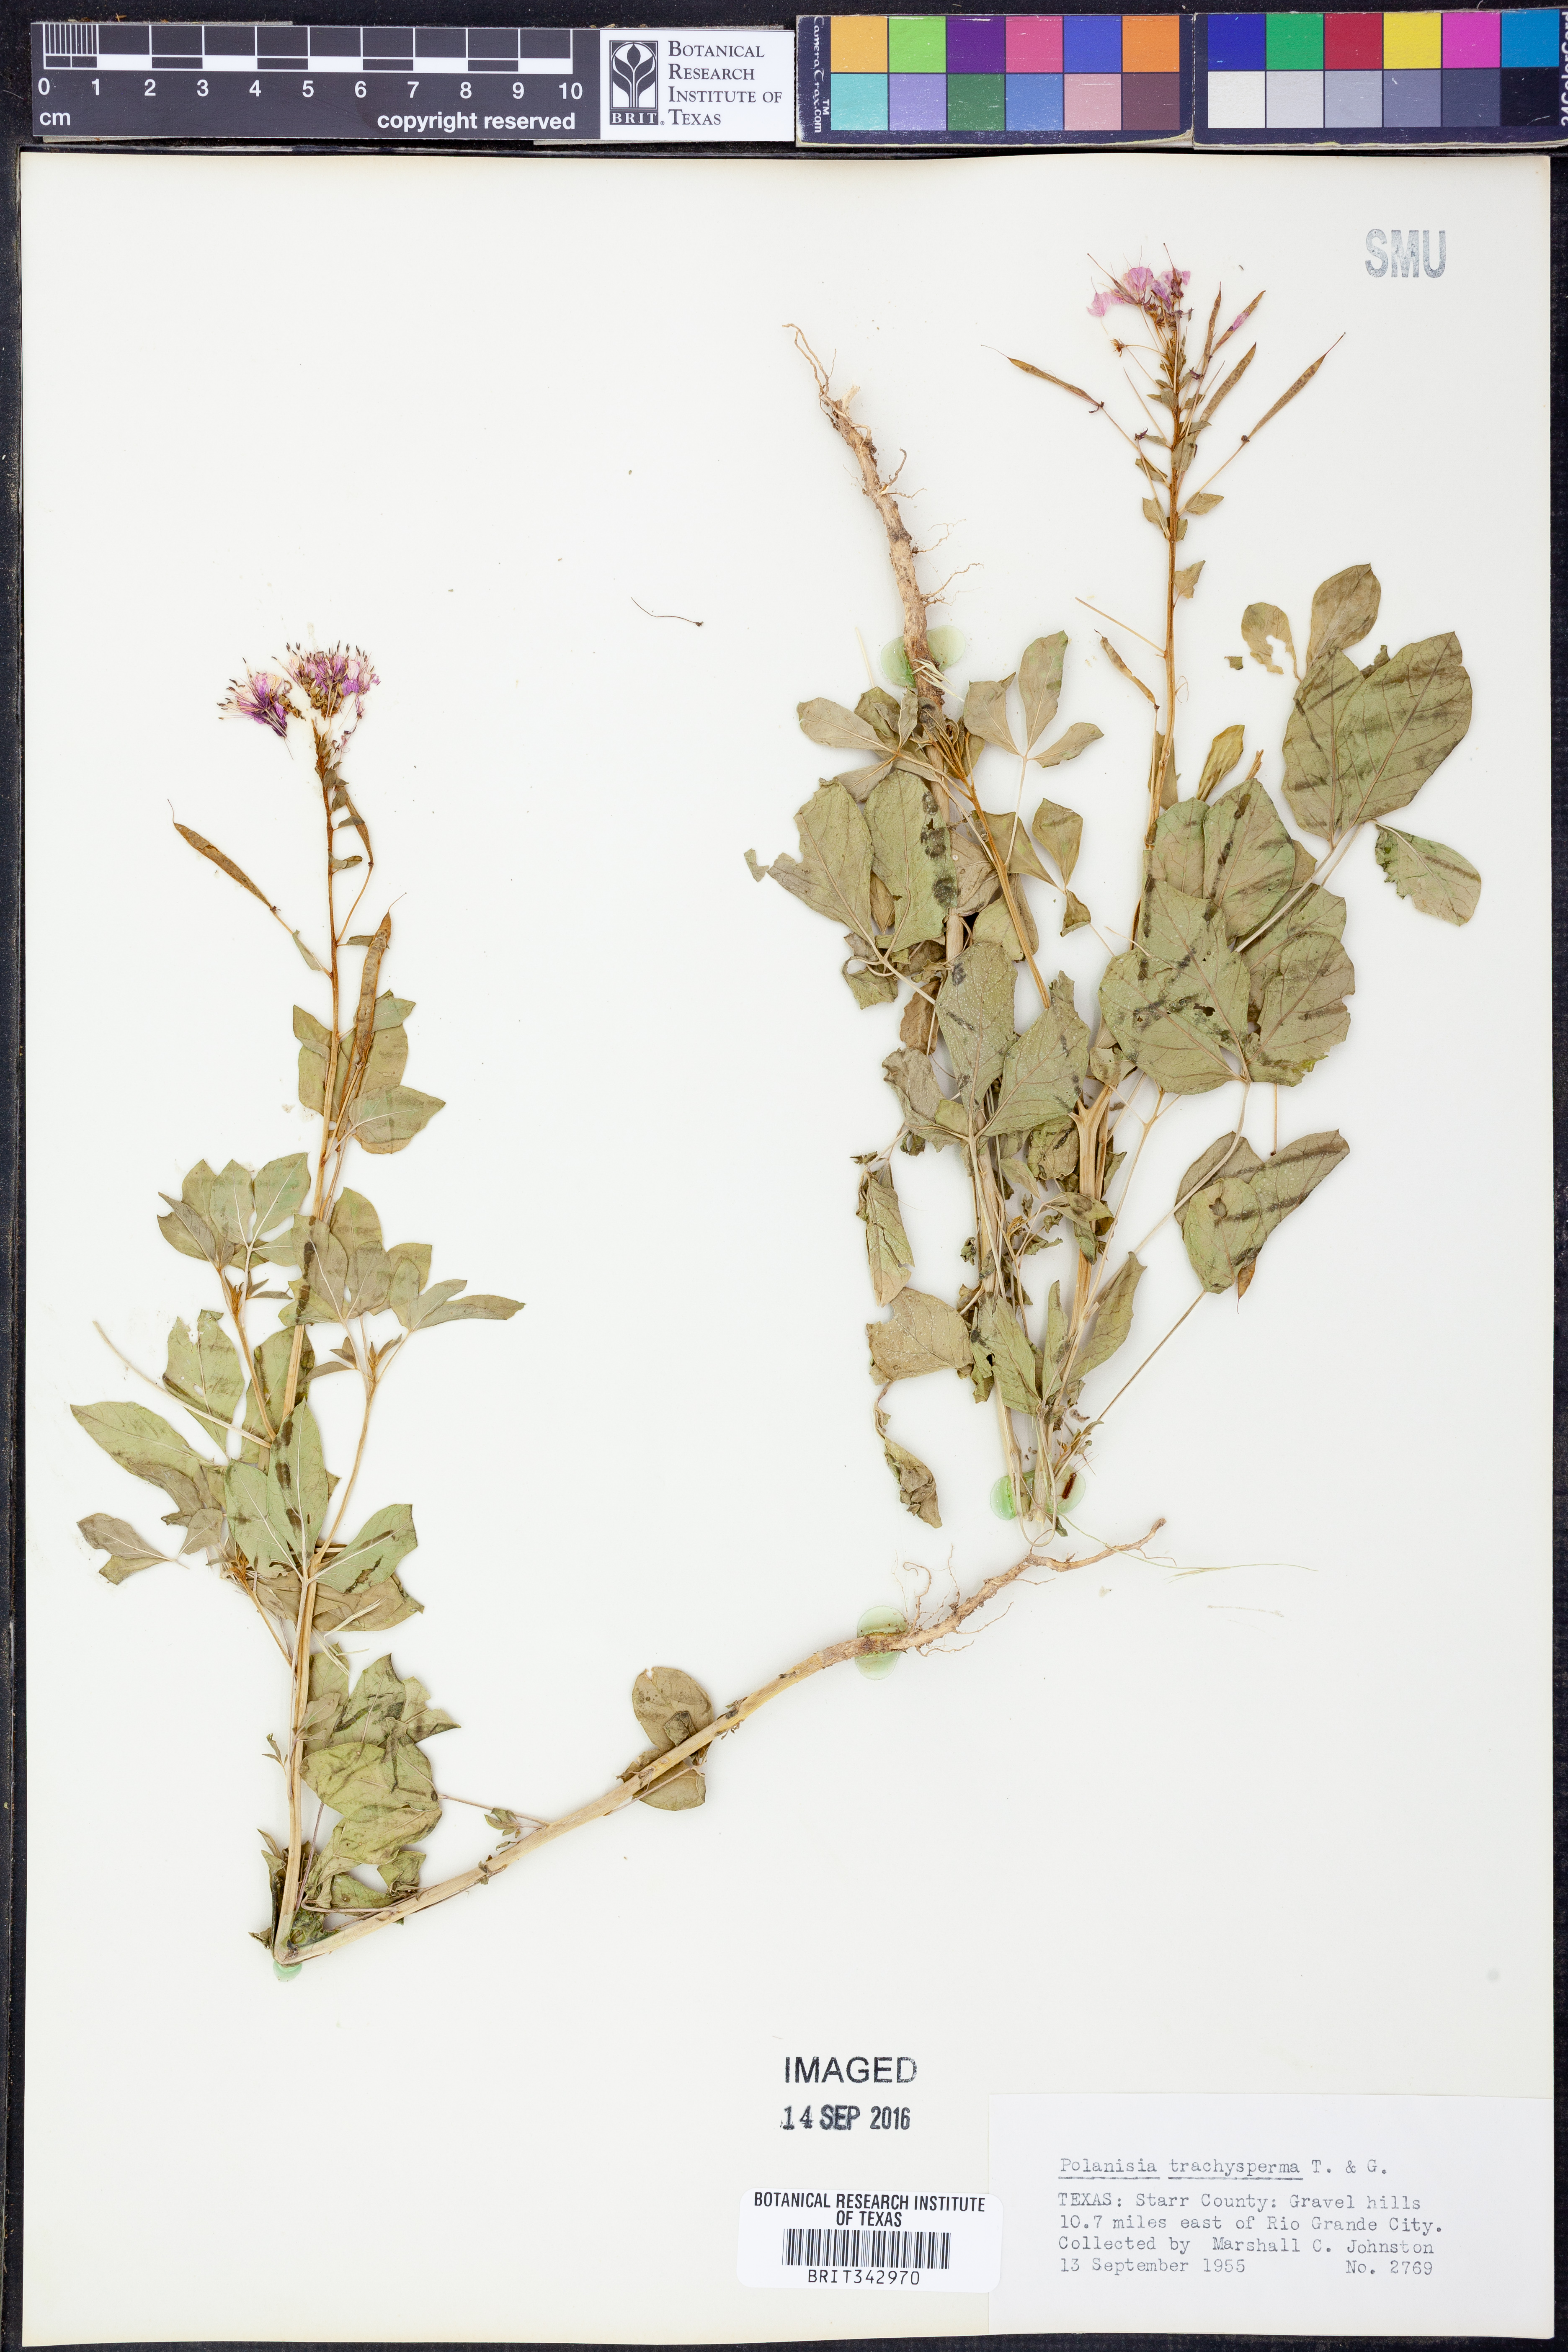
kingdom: Plantae
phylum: Tracheophyta
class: Magnoliopsida
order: Brassicales
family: Cleomaceae
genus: Polanisia
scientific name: Polanisia trachysperma
